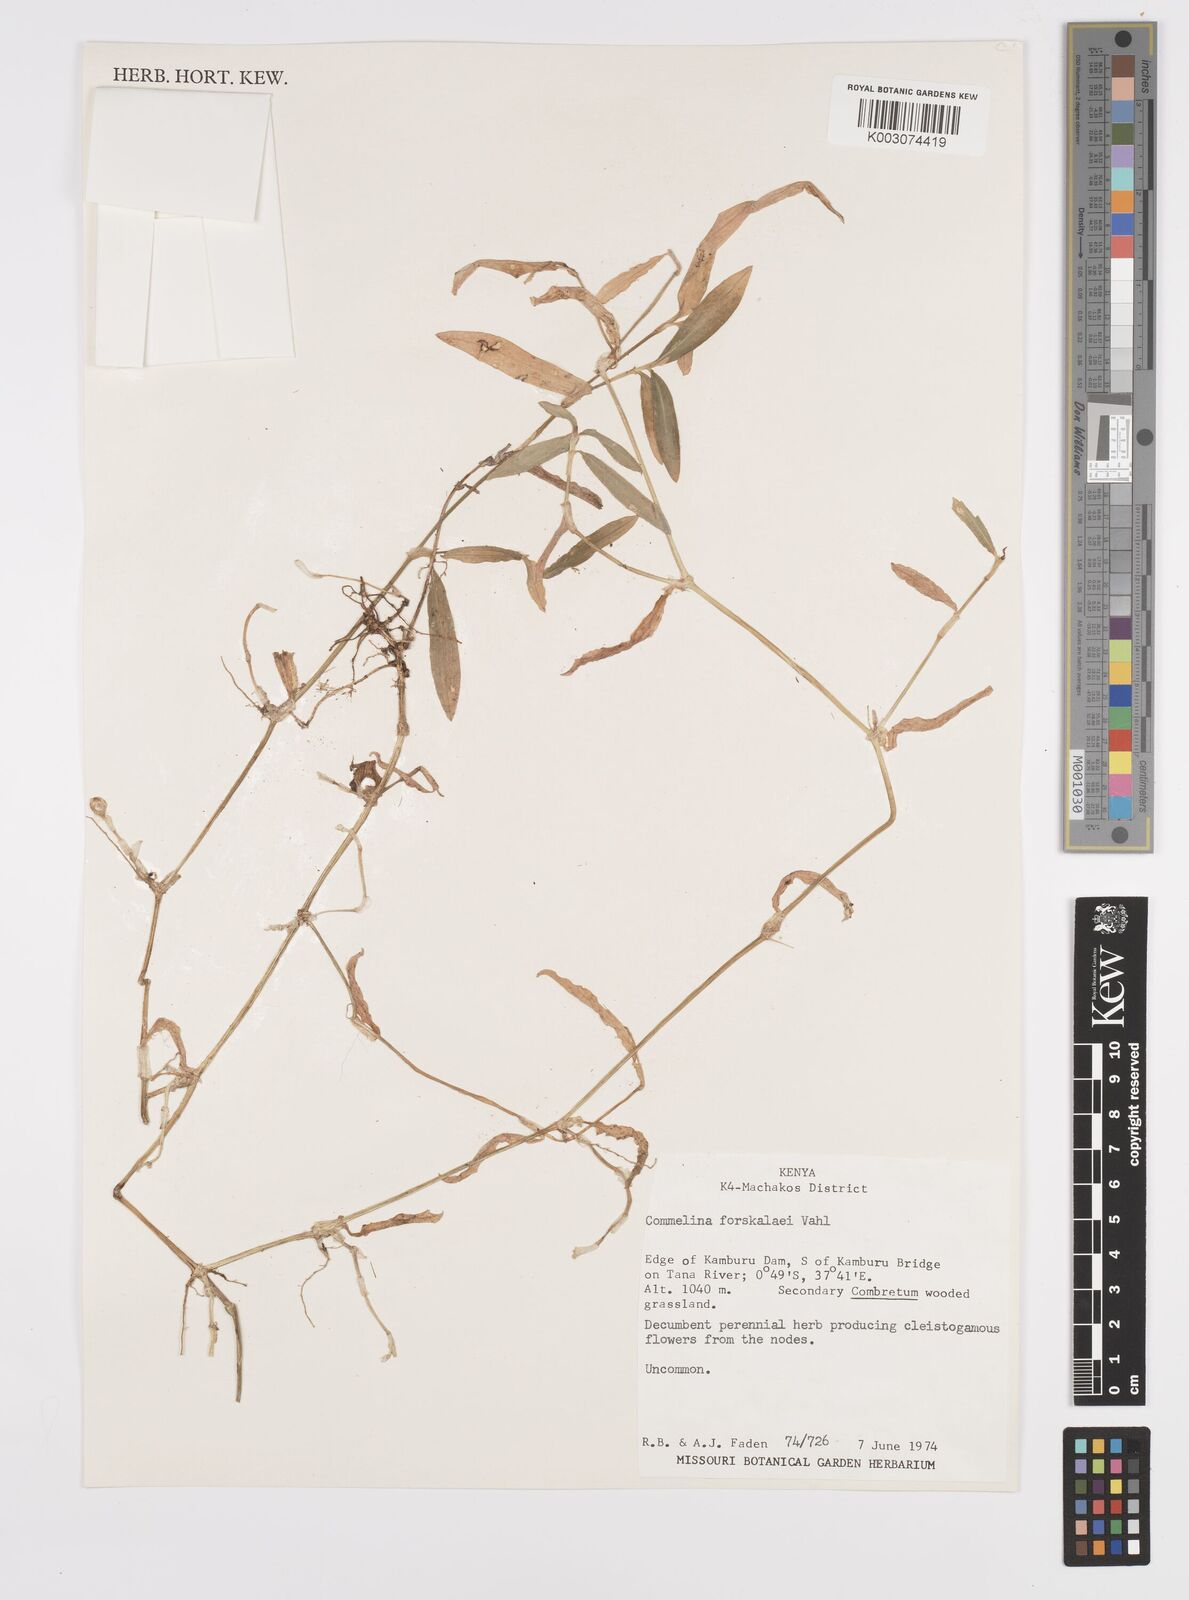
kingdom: Plantae
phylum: Tracheophyta
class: Liliopsida
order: Commelinales
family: Commelinaceae
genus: Commelina
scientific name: Commelina forskaolii
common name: Rat's ear
